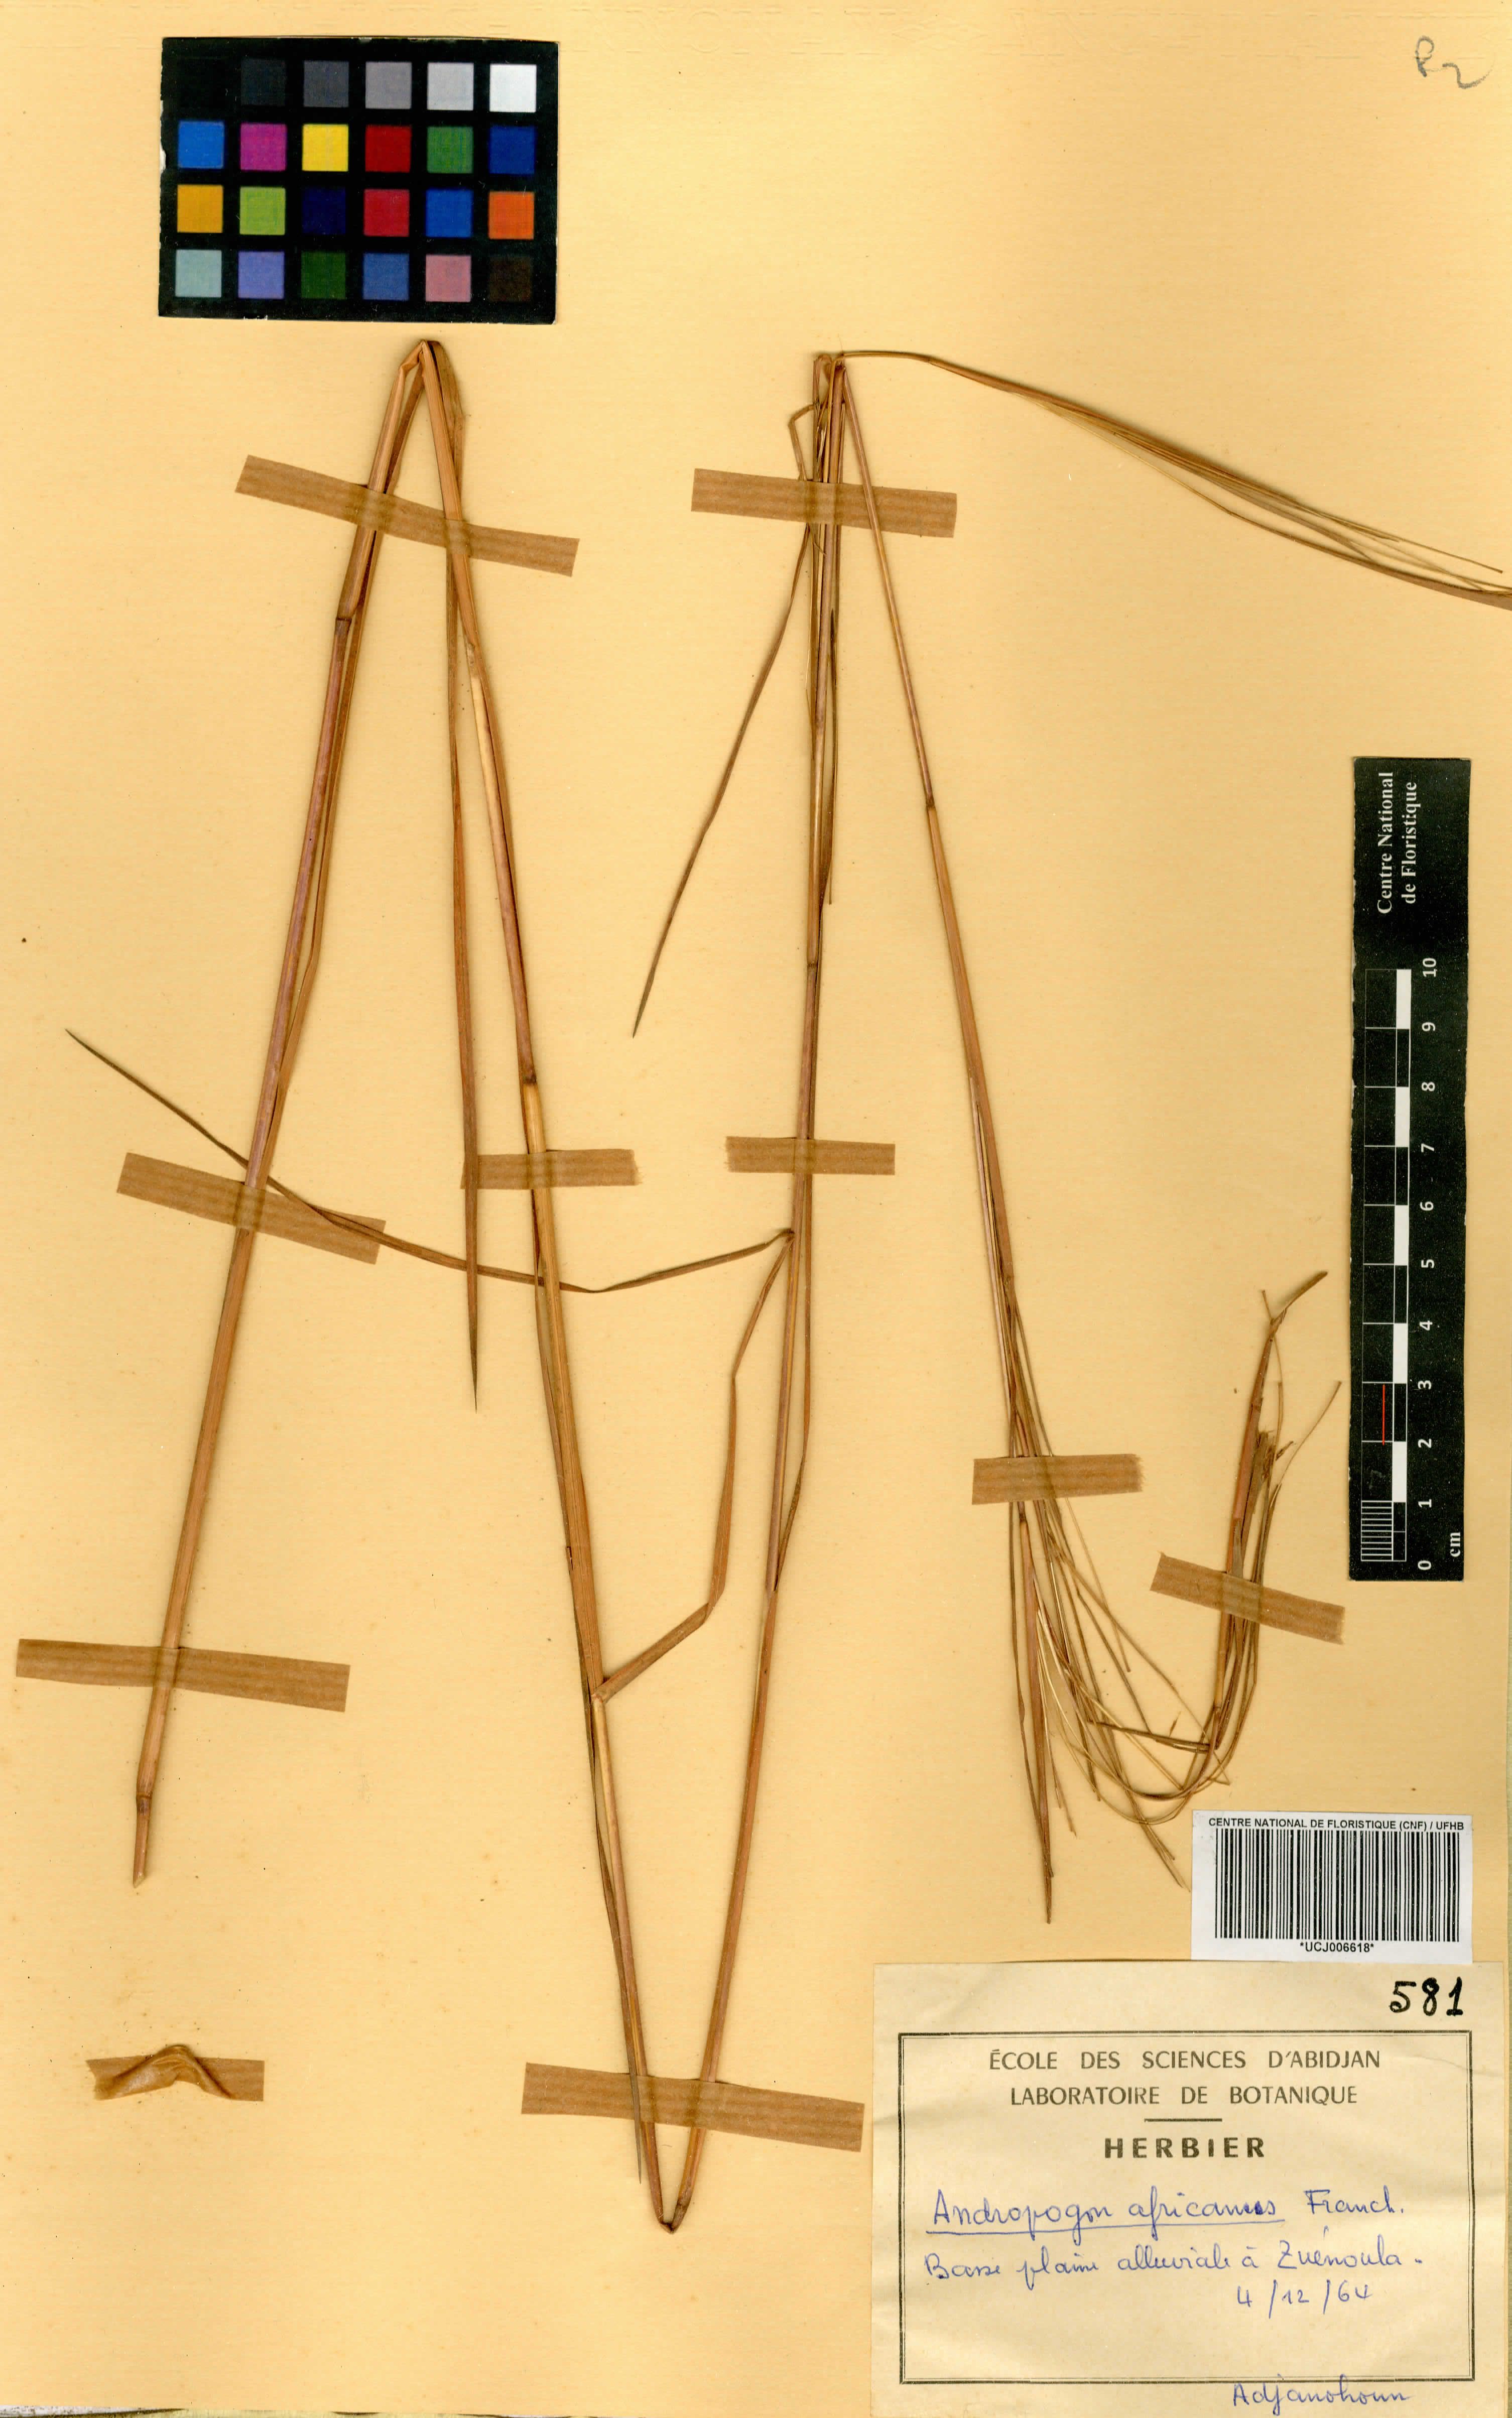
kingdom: Plantae
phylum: Tracheophyta
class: Liliopsida
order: Poales
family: Poaceae
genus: Andropogon
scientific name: Andropogon africanus
